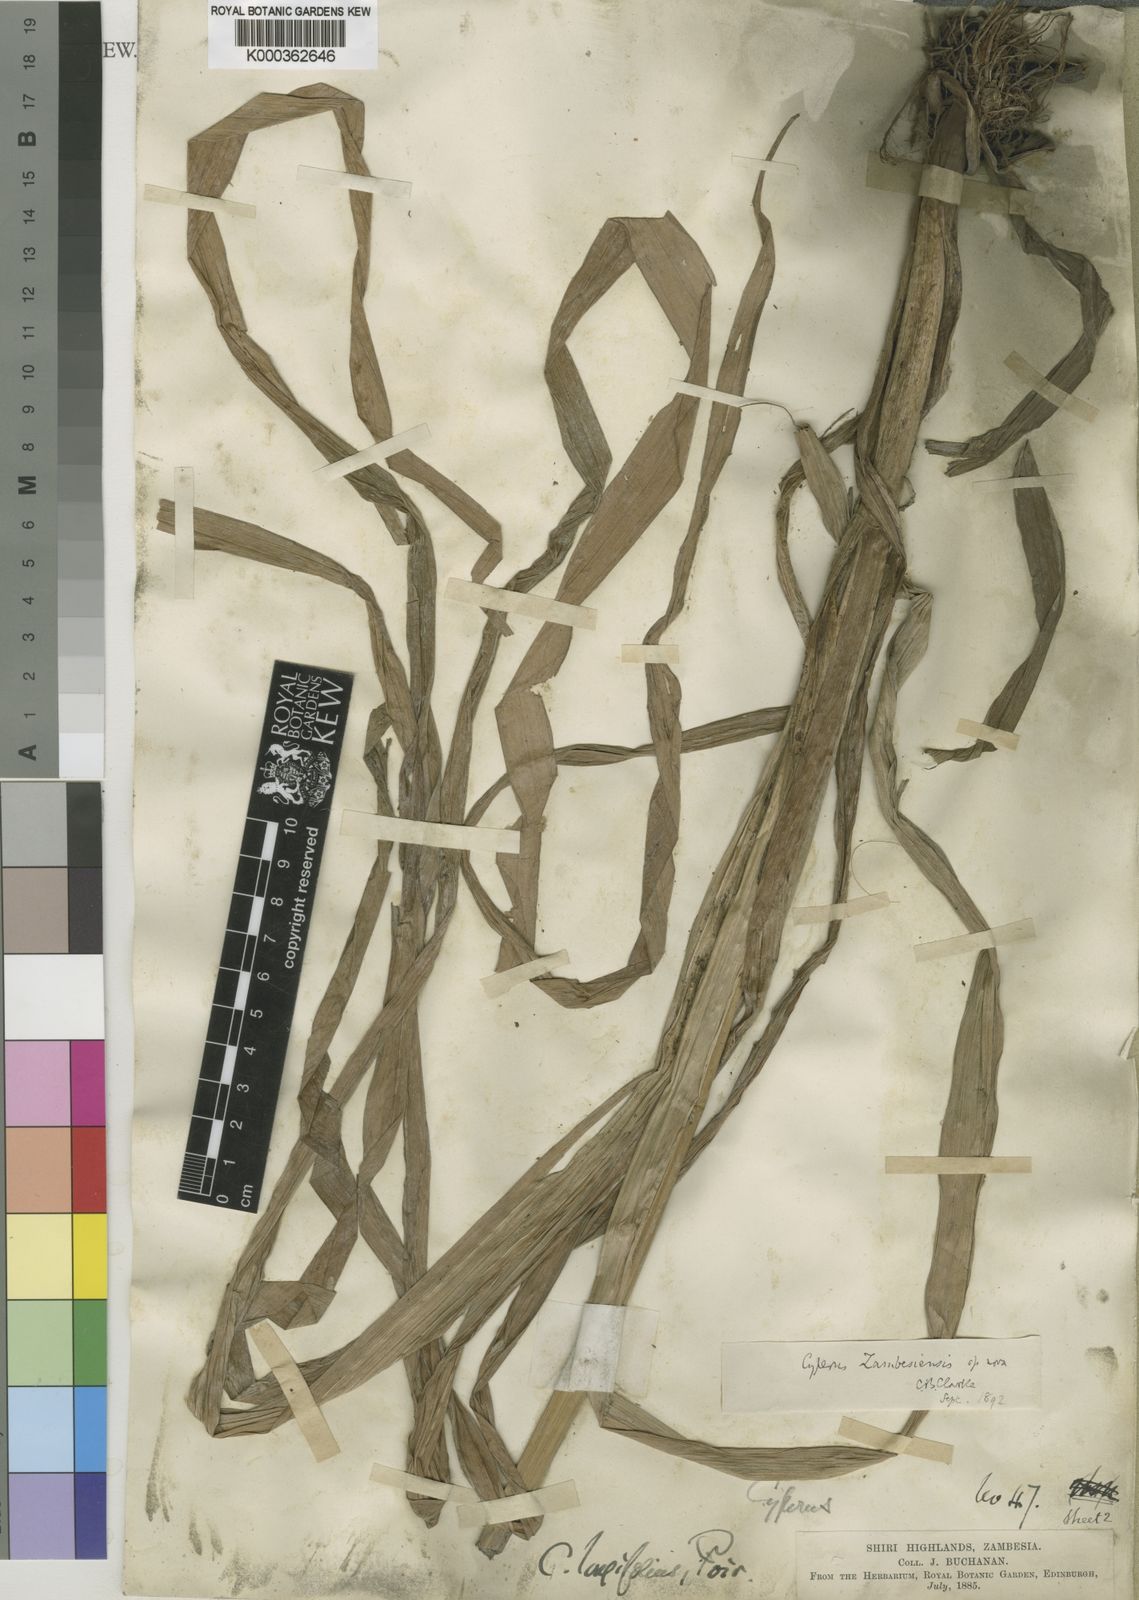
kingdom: Plantae
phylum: Tracheophyta
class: Liliopsida
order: Poales
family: Cyperaceae
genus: Cyperus
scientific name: Cyperus
